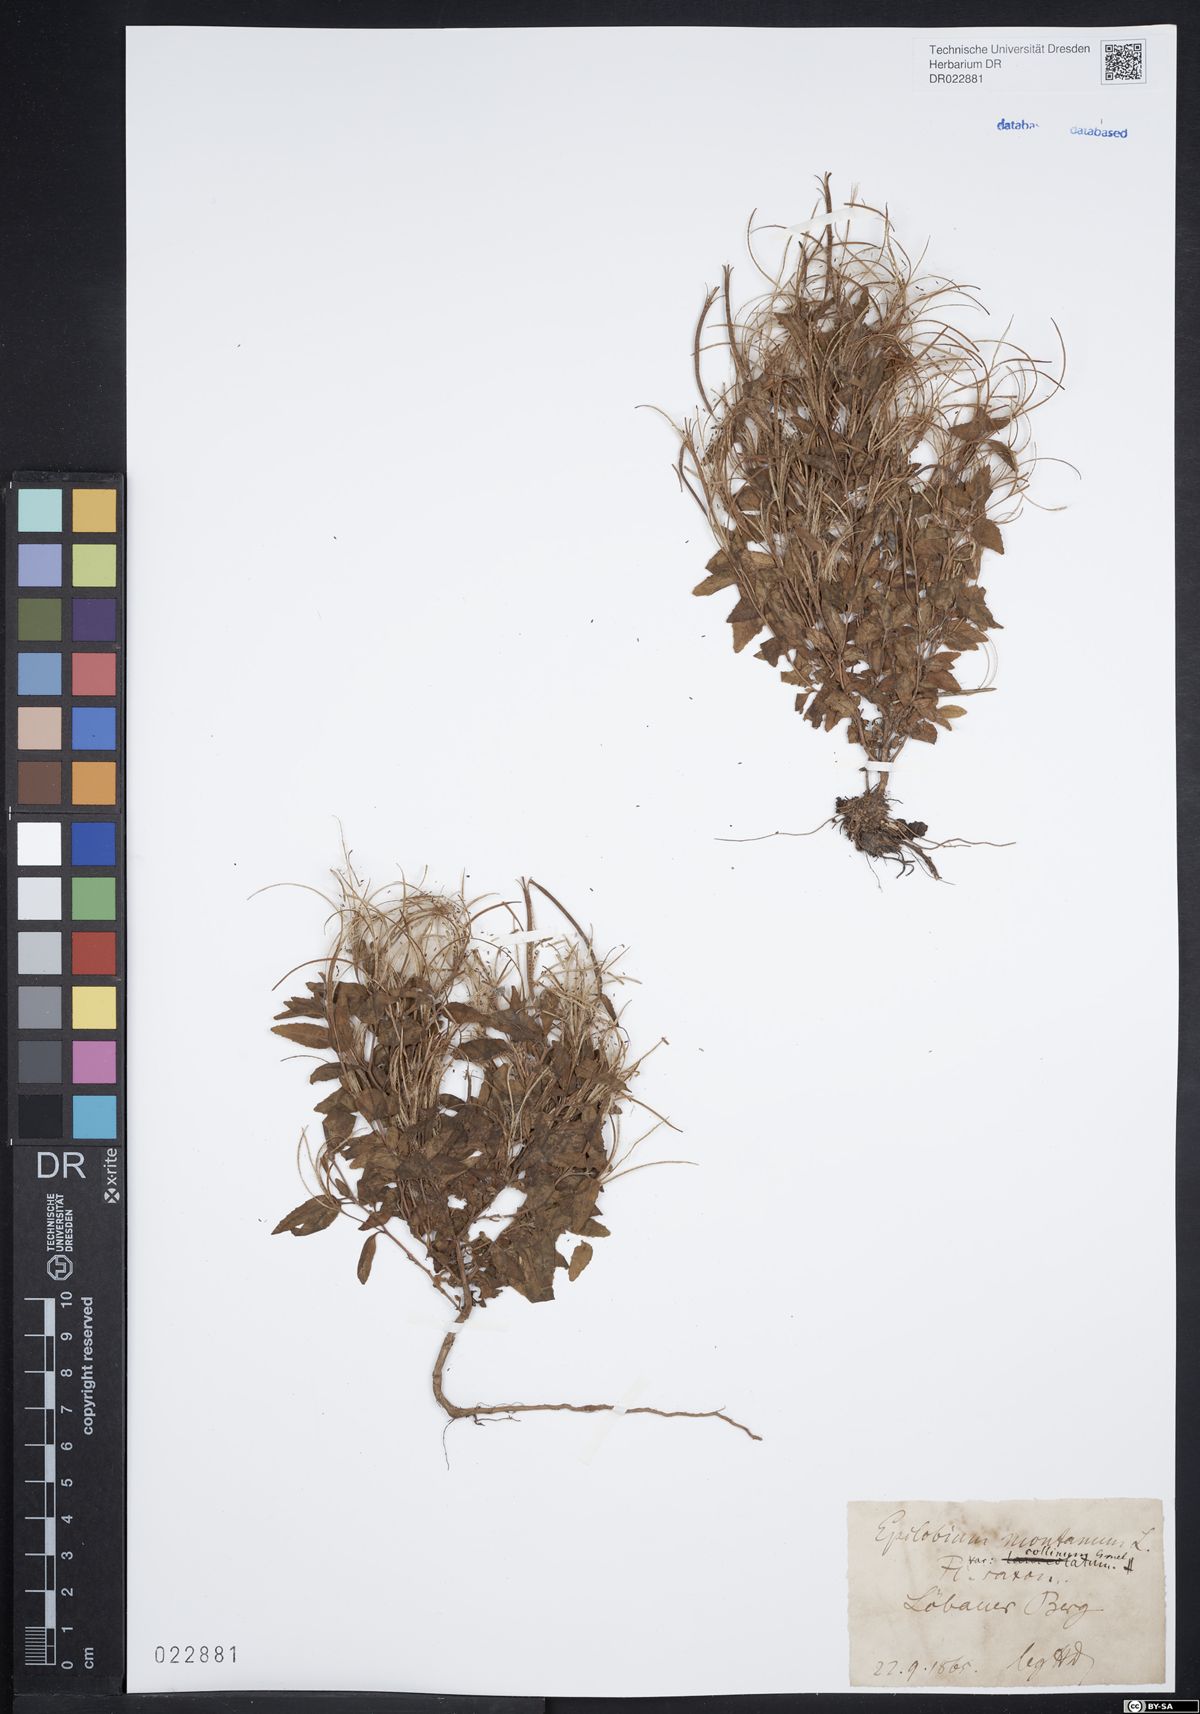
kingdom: Plantae
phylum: Tracheophyta
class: Magnoliopsida
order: Myrtales
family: Onagraceae
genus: Epilobium
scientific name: Epilobium collinum
